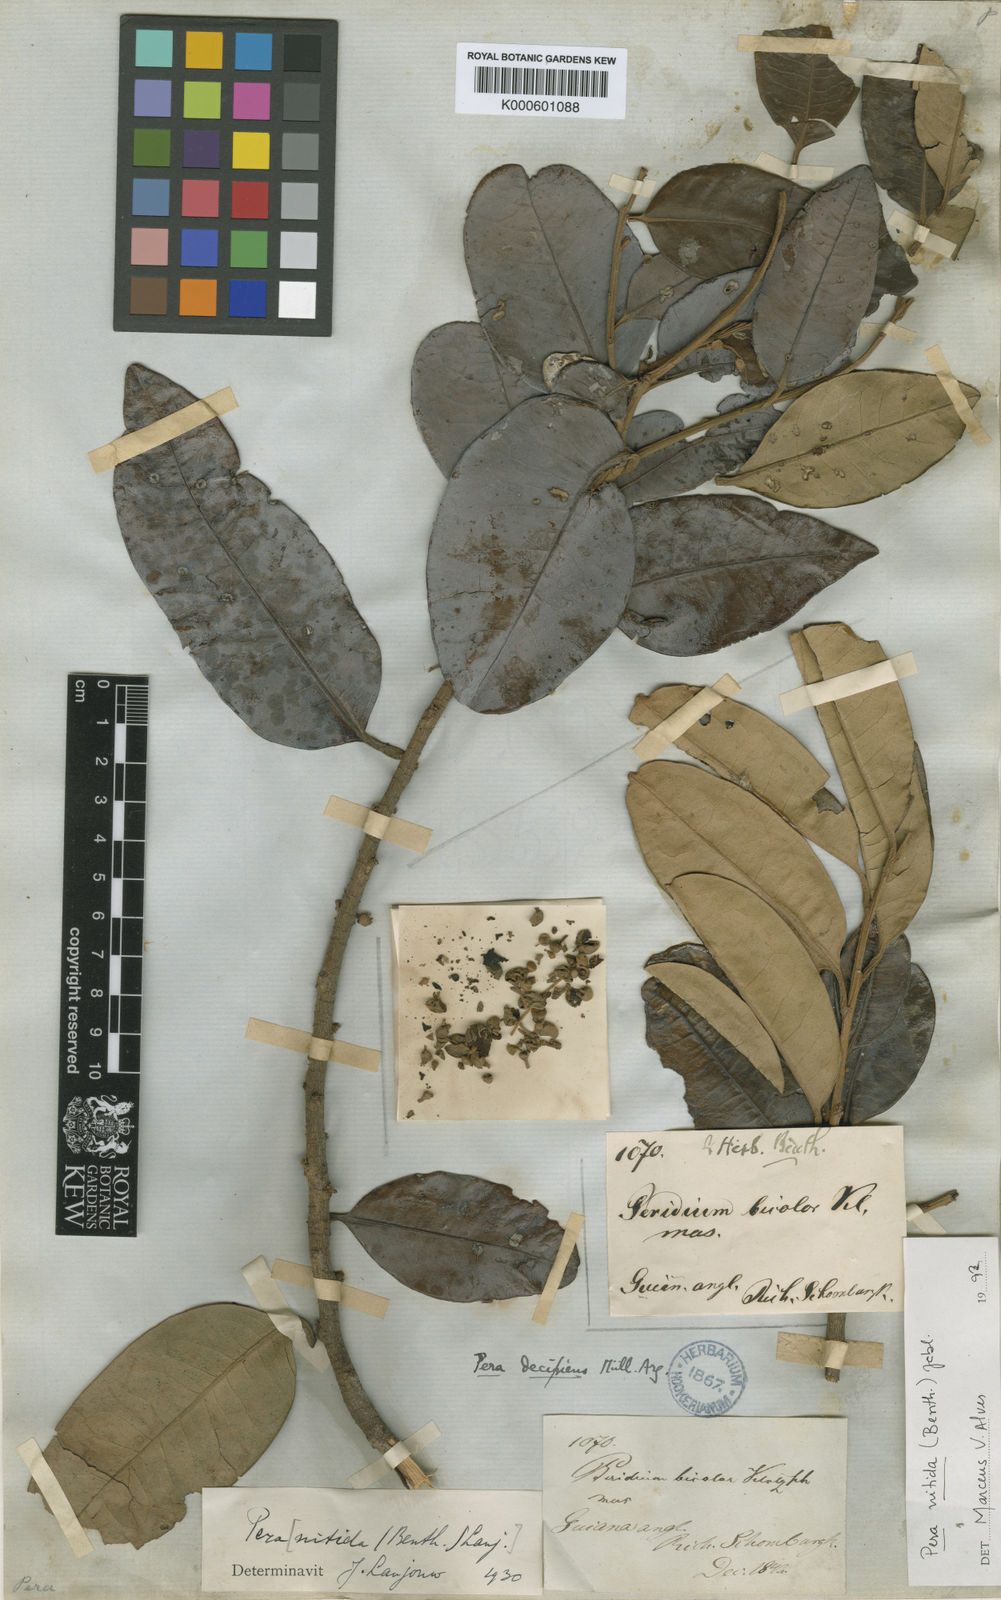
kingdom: Plantae
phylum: Tracheophyta
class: Magnoliopsida
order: Malpighiales
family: Peraceae
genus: Pera
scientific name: Pera
